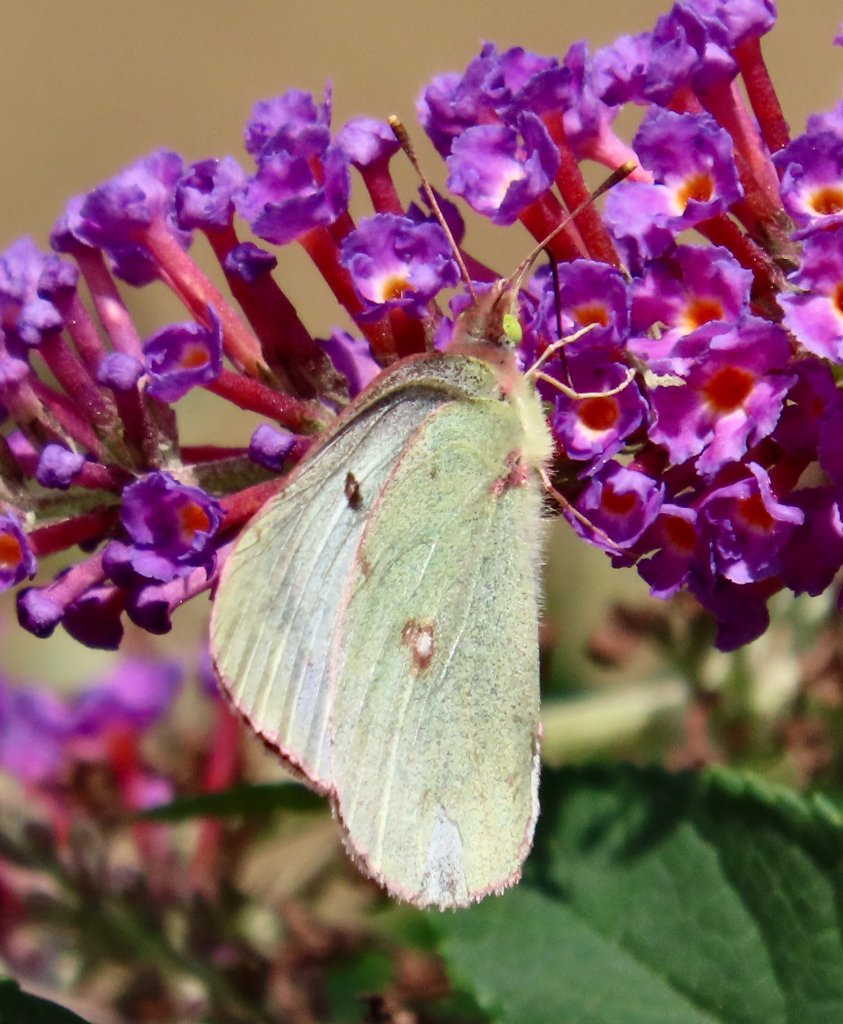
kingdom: Animalia
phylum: Arthropoda
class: Insecta
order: Lepidoptera
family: Pieridae
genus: Colias
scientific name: Colias philodice
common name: Clouded Sulphur
